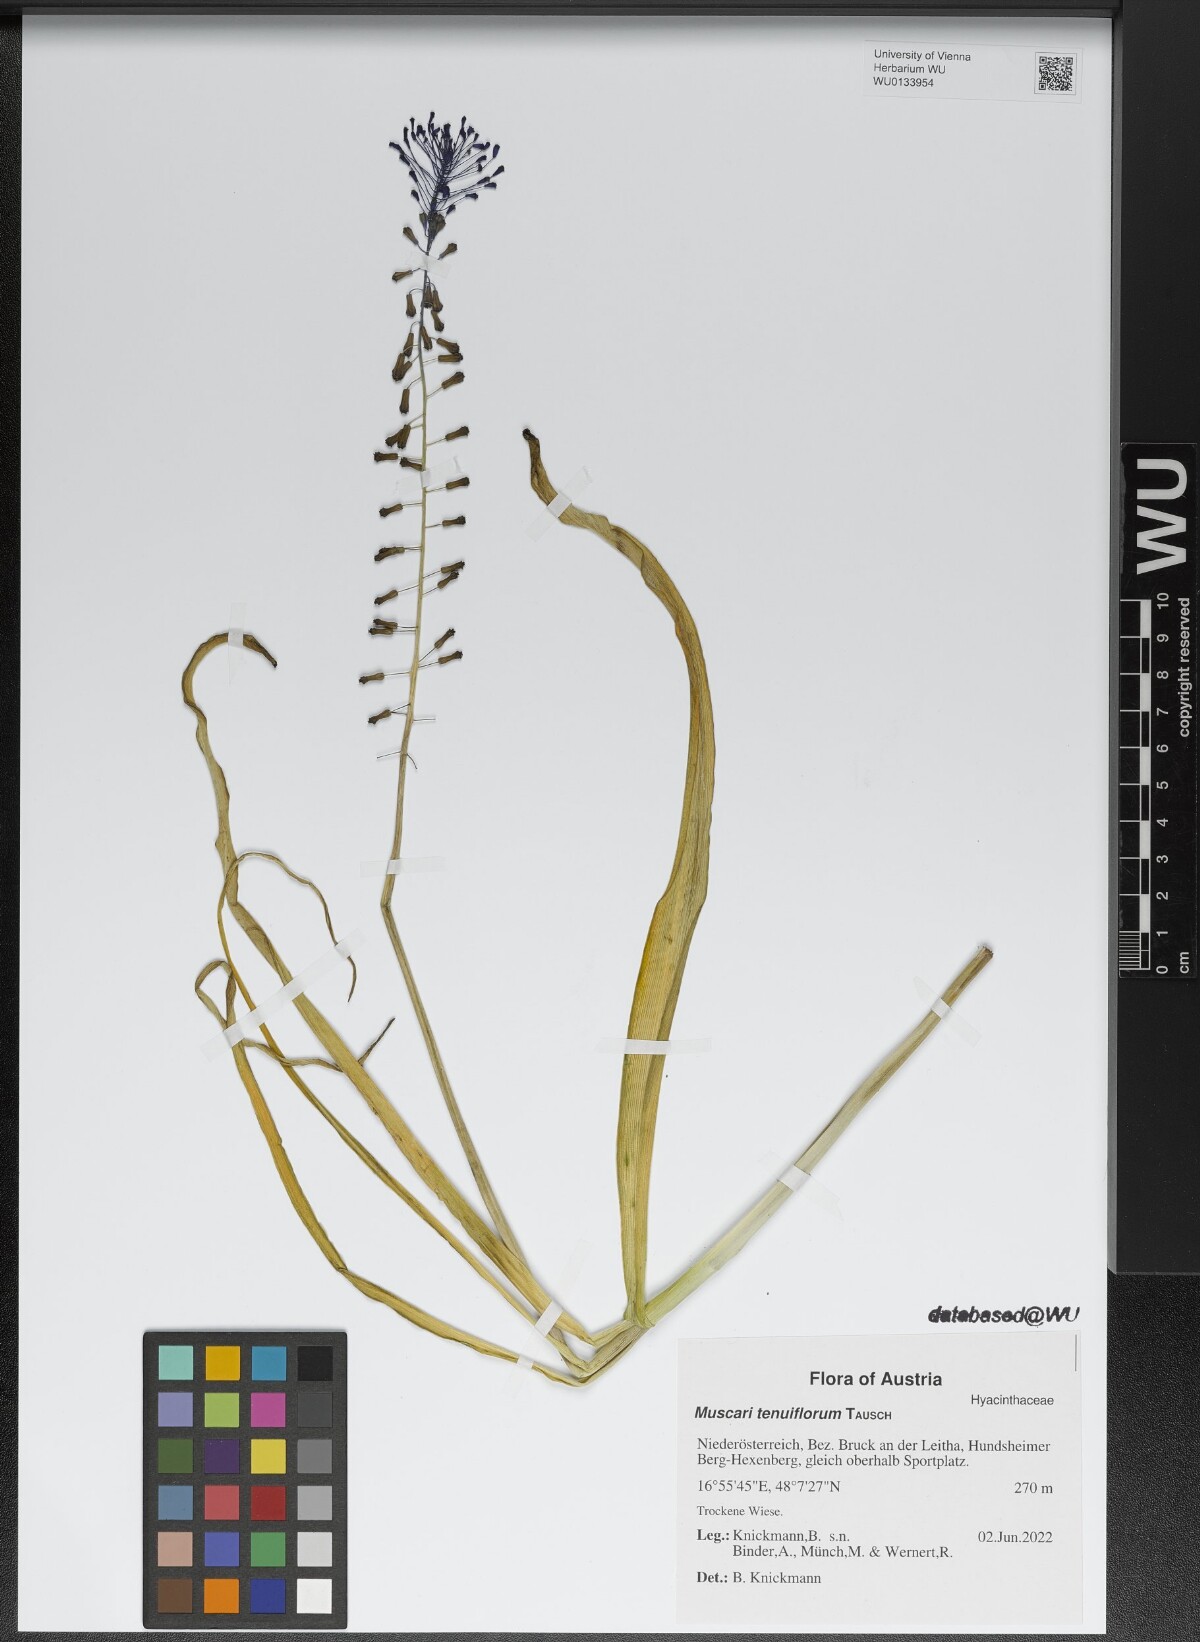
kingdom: Plantae
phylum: Tracheophyta
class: Liliopsida
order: Asparagales
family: Asparagaceae
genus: Muscari
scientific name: Muscari tenuiflorum
